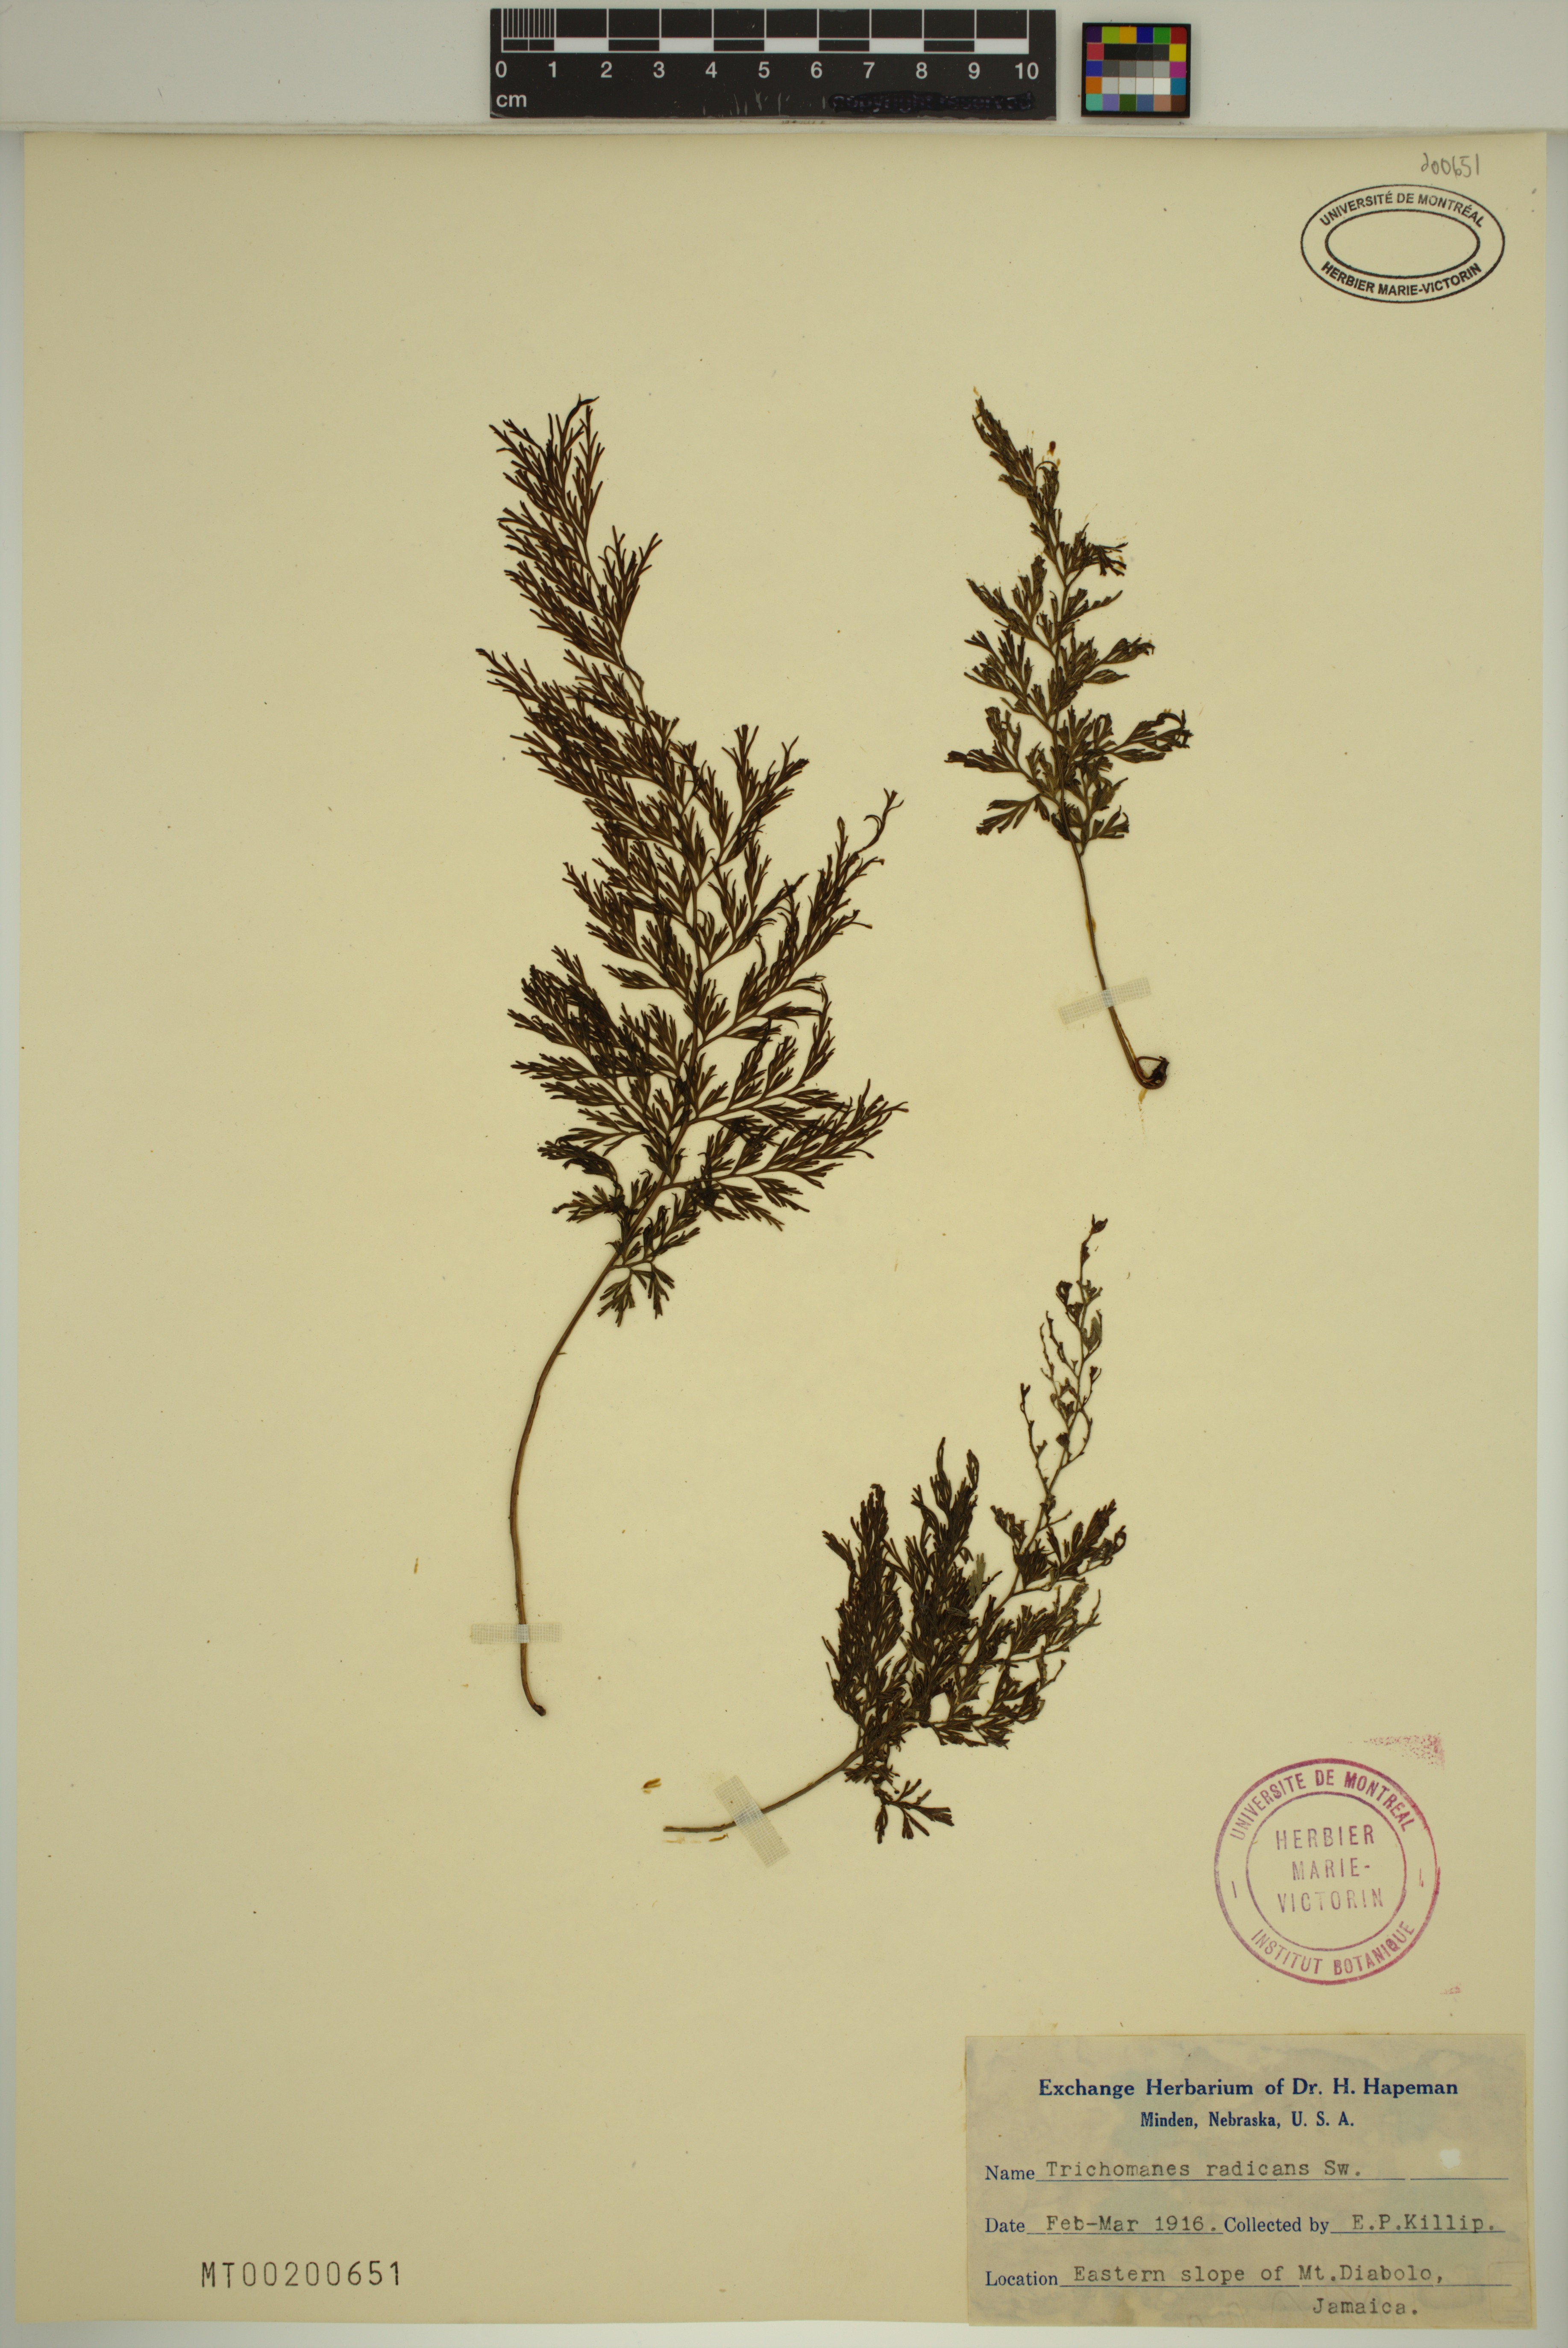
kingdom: Plantae
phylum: Tracheophyta
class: Polypodiopsida
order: Hymenophyllales
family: Hymenophyllaceae
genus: Vandenboschia
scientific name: Vandenboschia radicans
